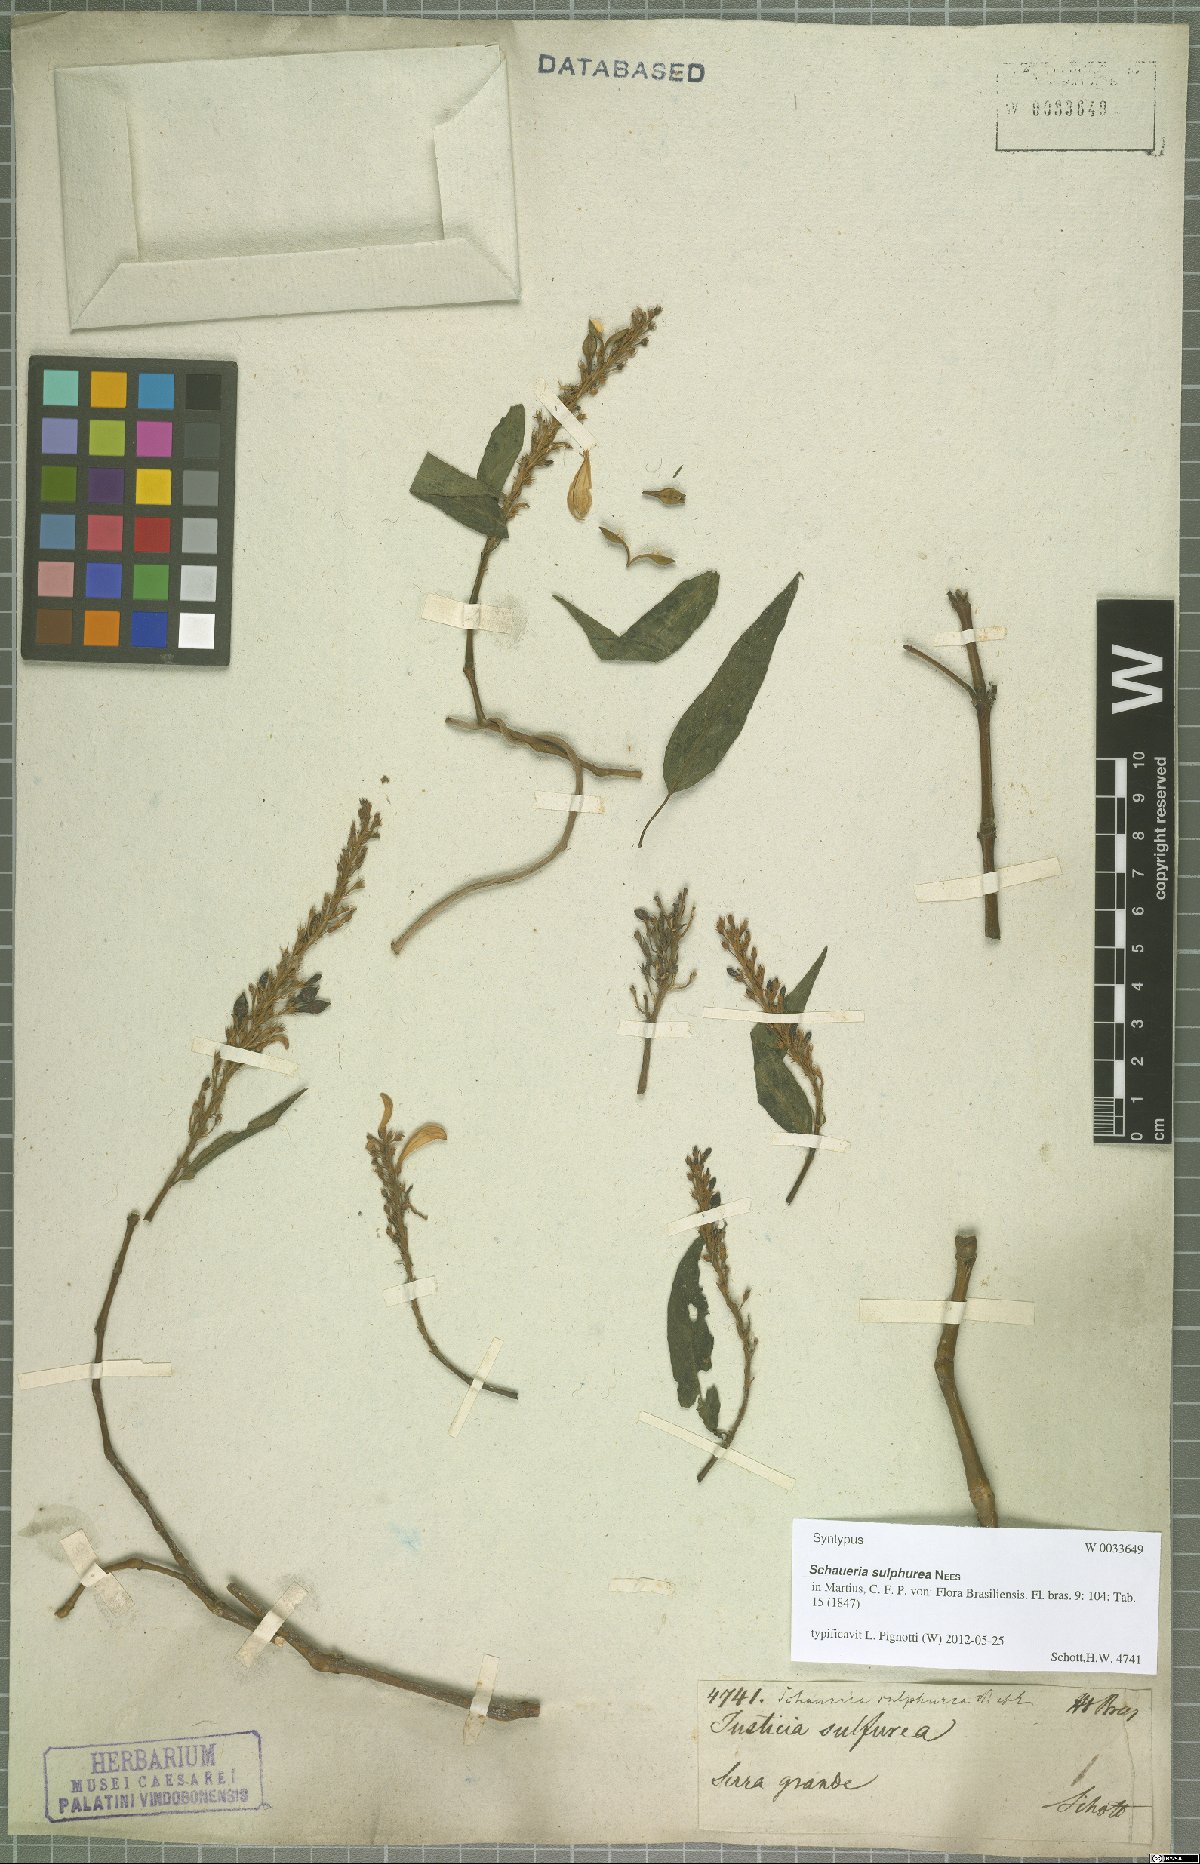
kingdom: Plantae
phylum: Tracheophyta
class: Magnoliopsida
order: Lamiales
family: Acanthaceae
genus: Schaueria
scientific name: Schaueria sulfurea
